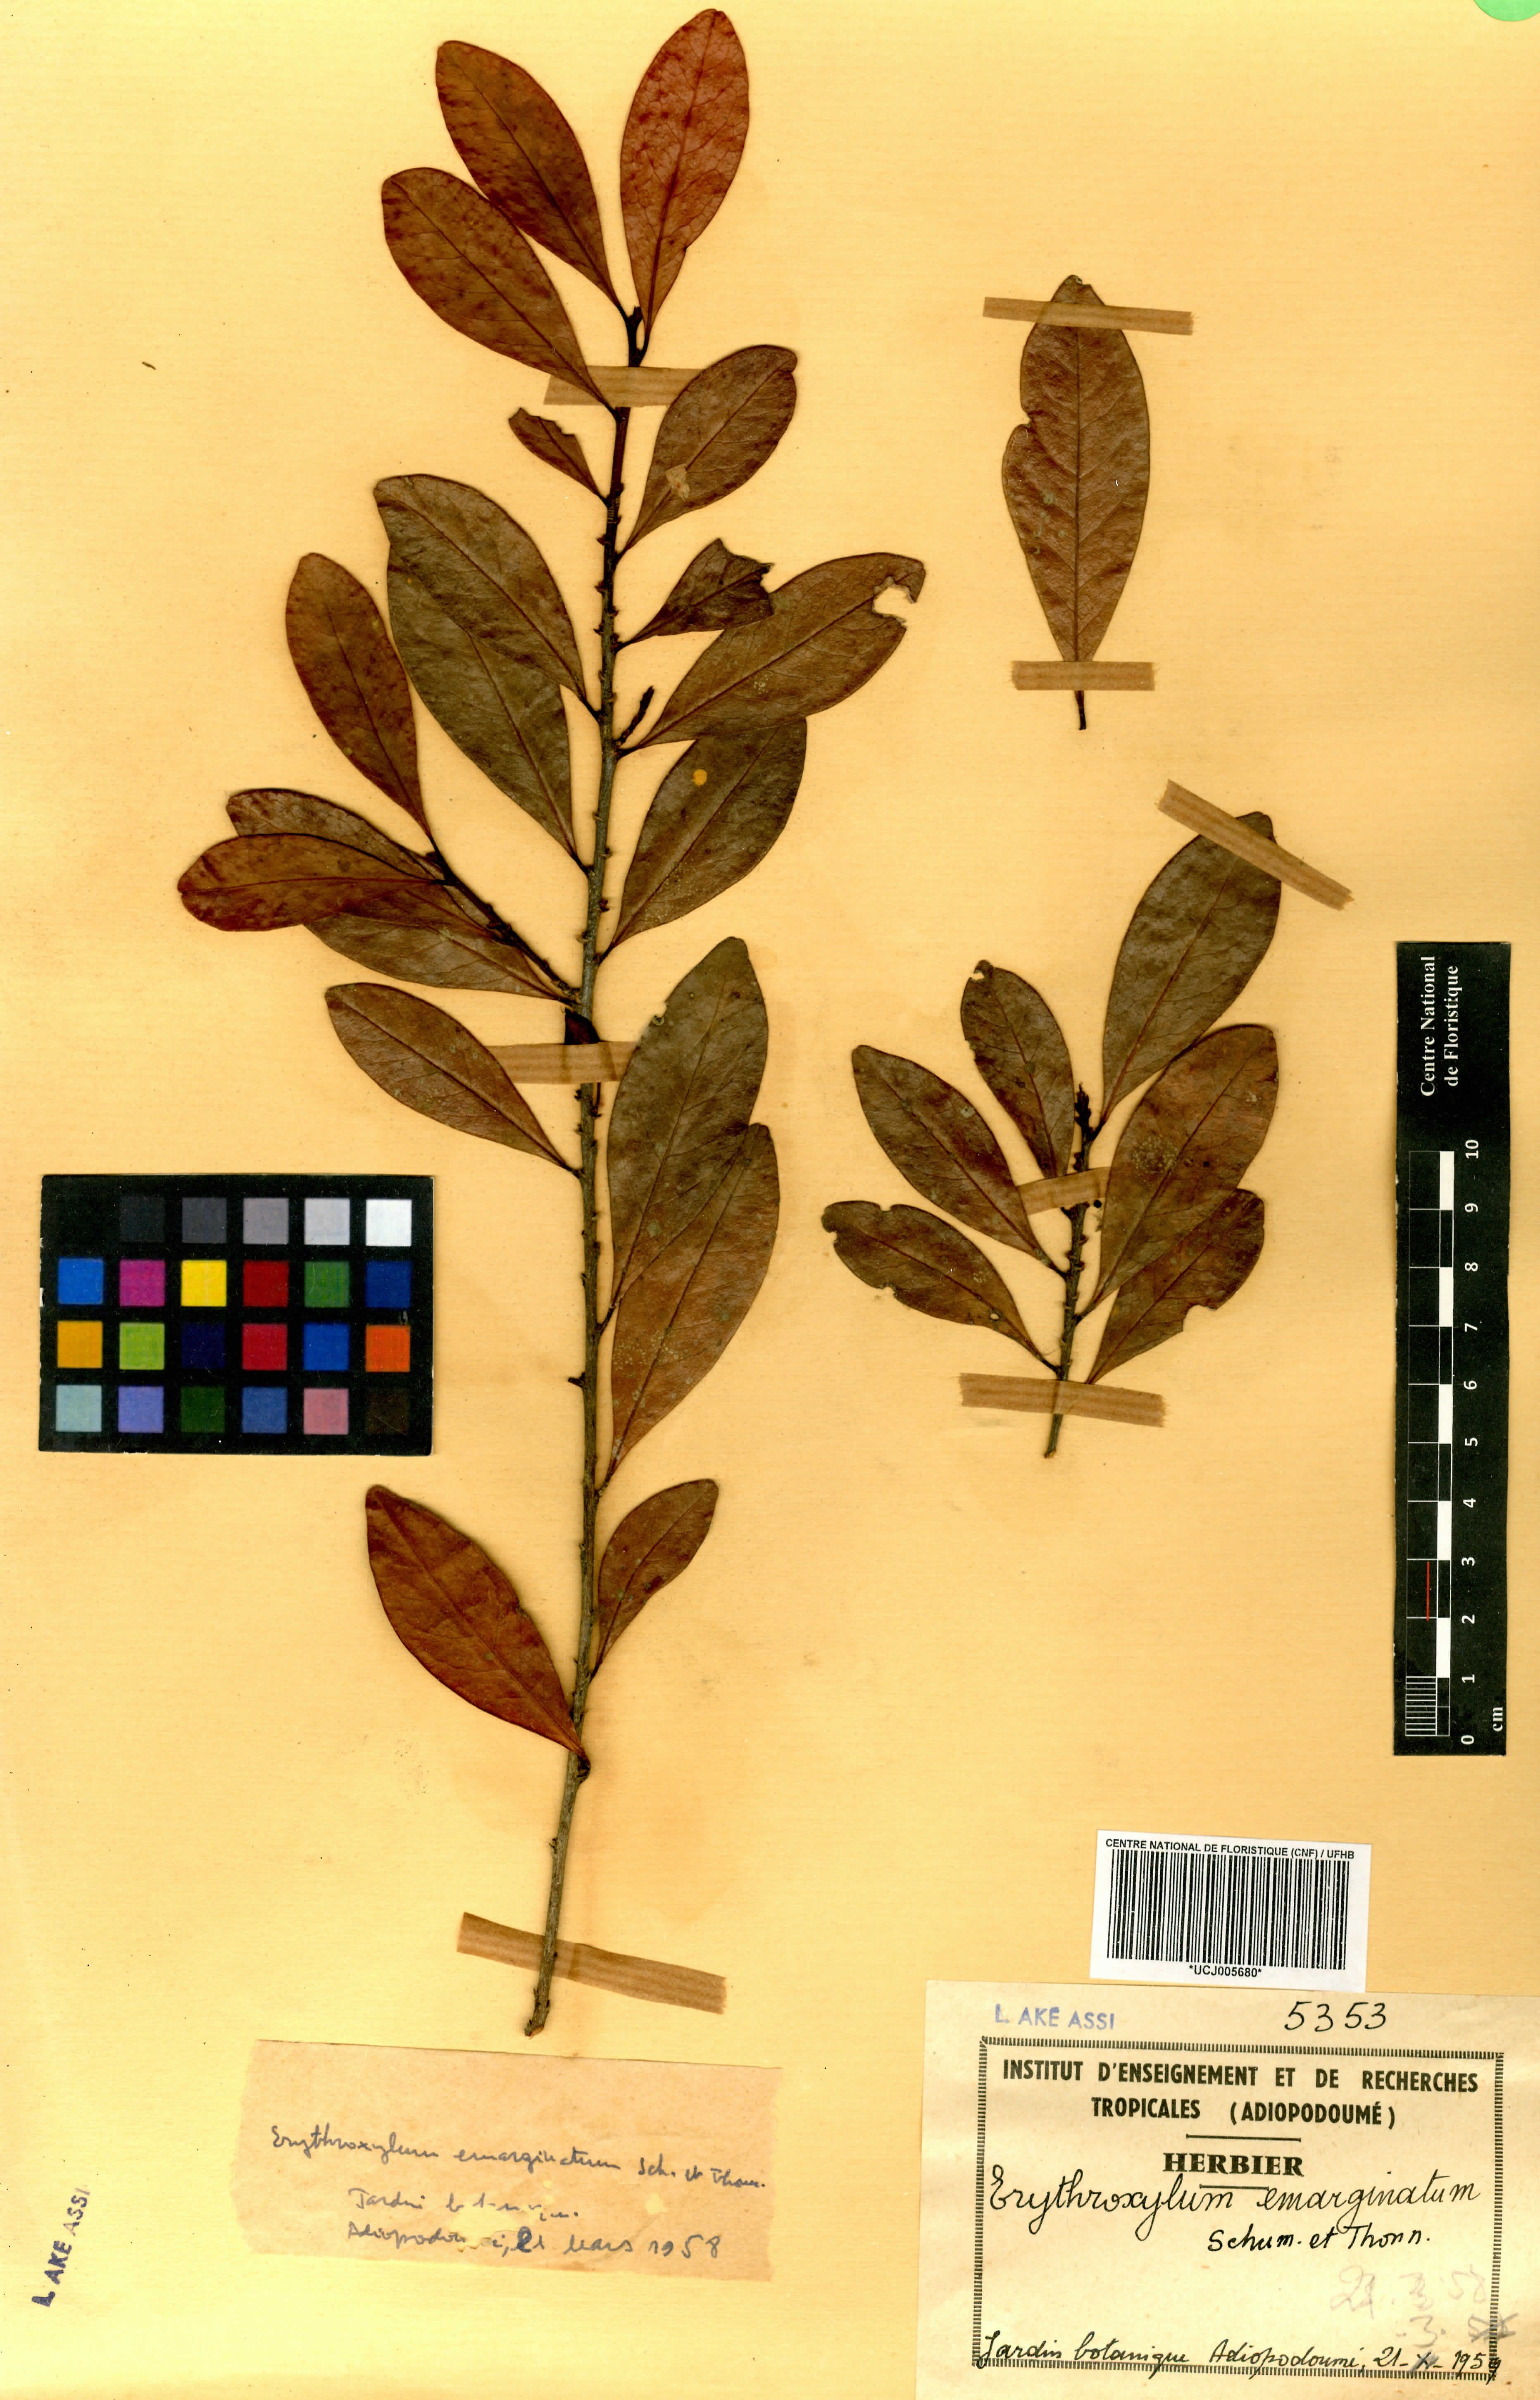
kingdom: Plantae
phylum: Tracheophyta
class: Magnoliopsida
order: Malpighiales
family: Erythroxylaceae
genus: Erythroxylum
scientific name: Erythroxylum emarginatum
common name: African coca-tree
